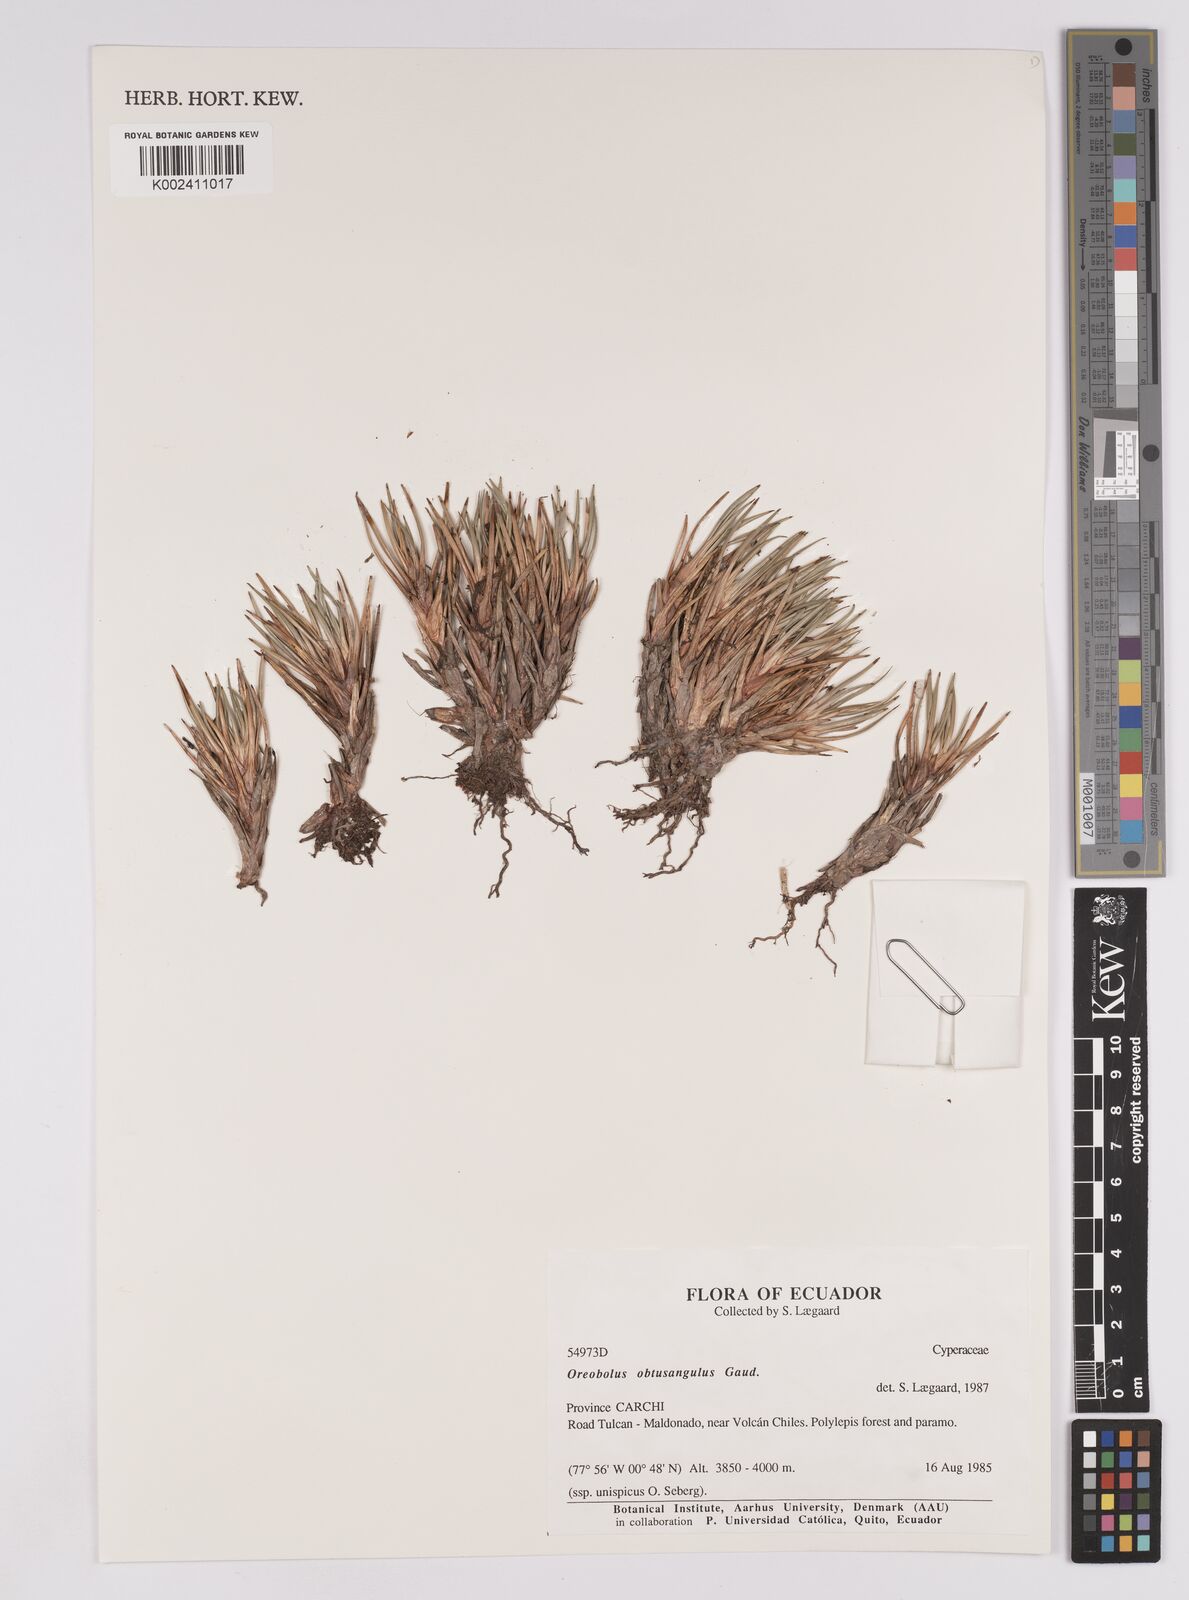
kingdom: Plantae
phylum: Tracheophyta
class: Liliopsida
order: Poales
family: Cyperaceae
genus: Oreobolus
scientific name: Oreobolus obtusangulus
